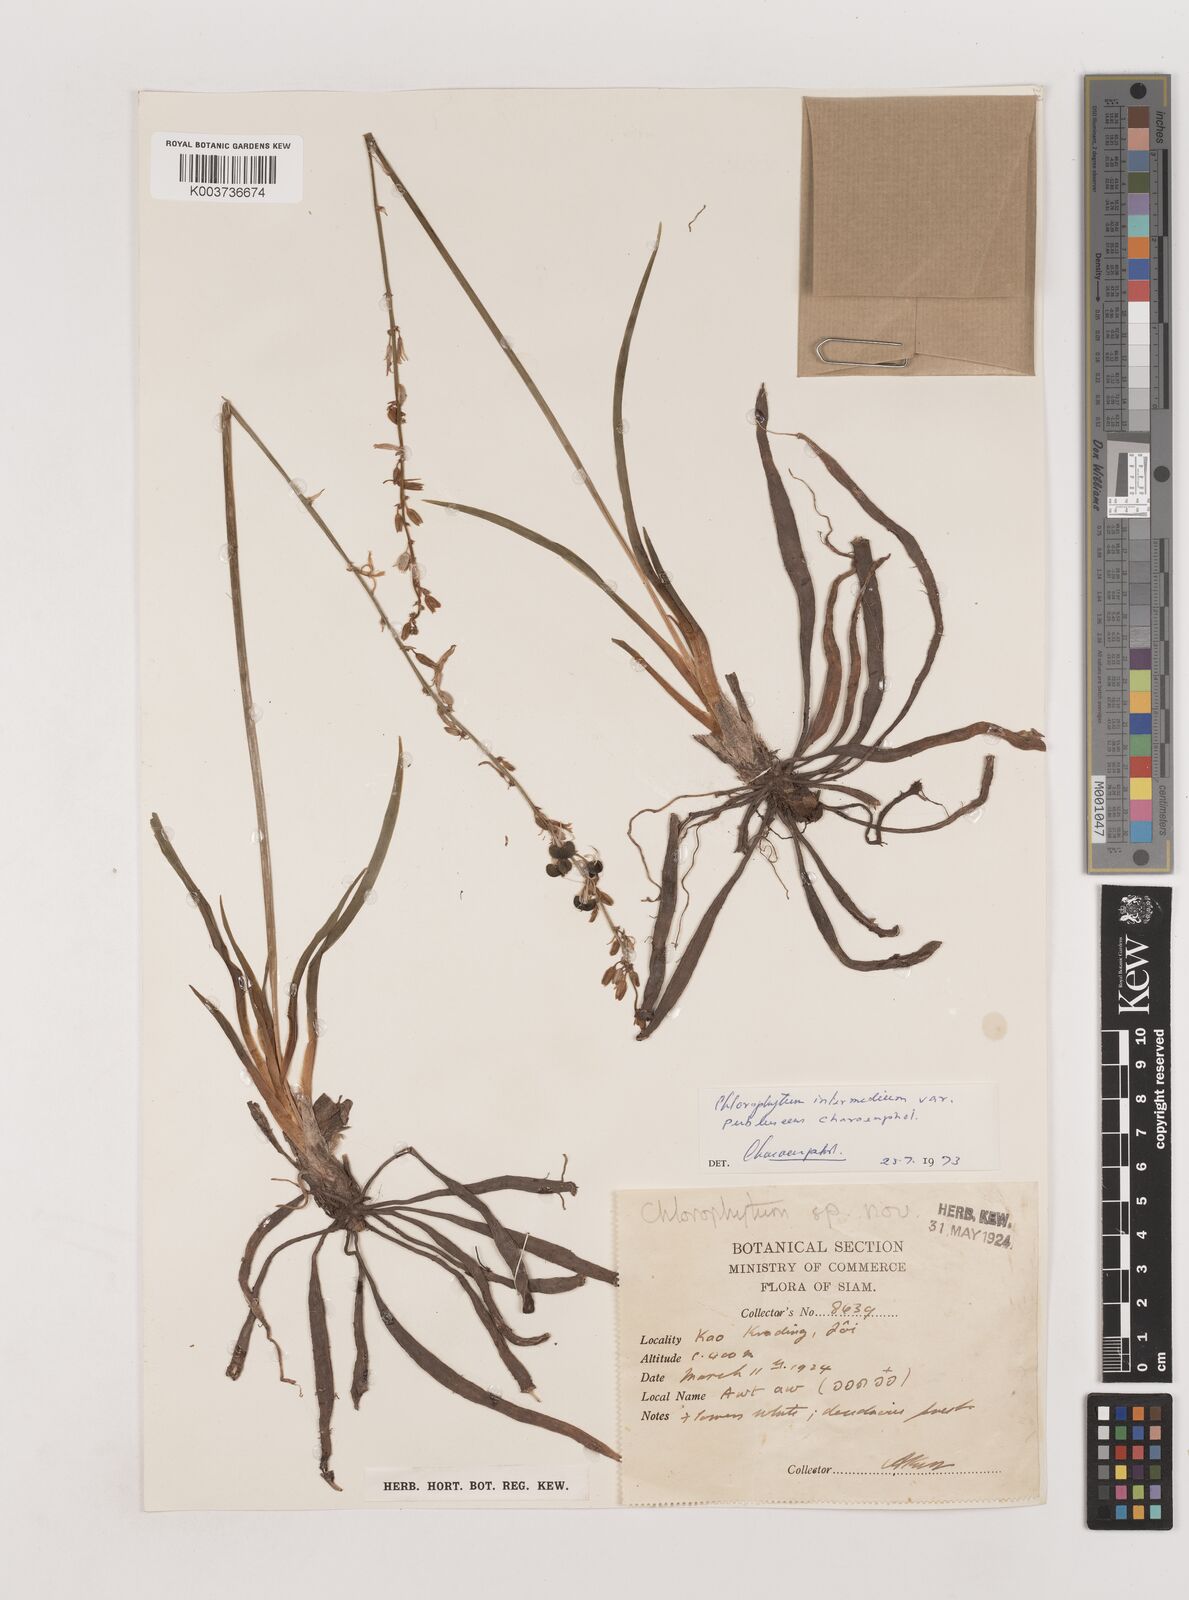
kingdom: Plantae
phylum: Tracheophyta
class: Liliopsida
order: Asparagales
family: Asparagaceae
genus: Chlorophytum
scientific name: Chlorophytum intermedium
